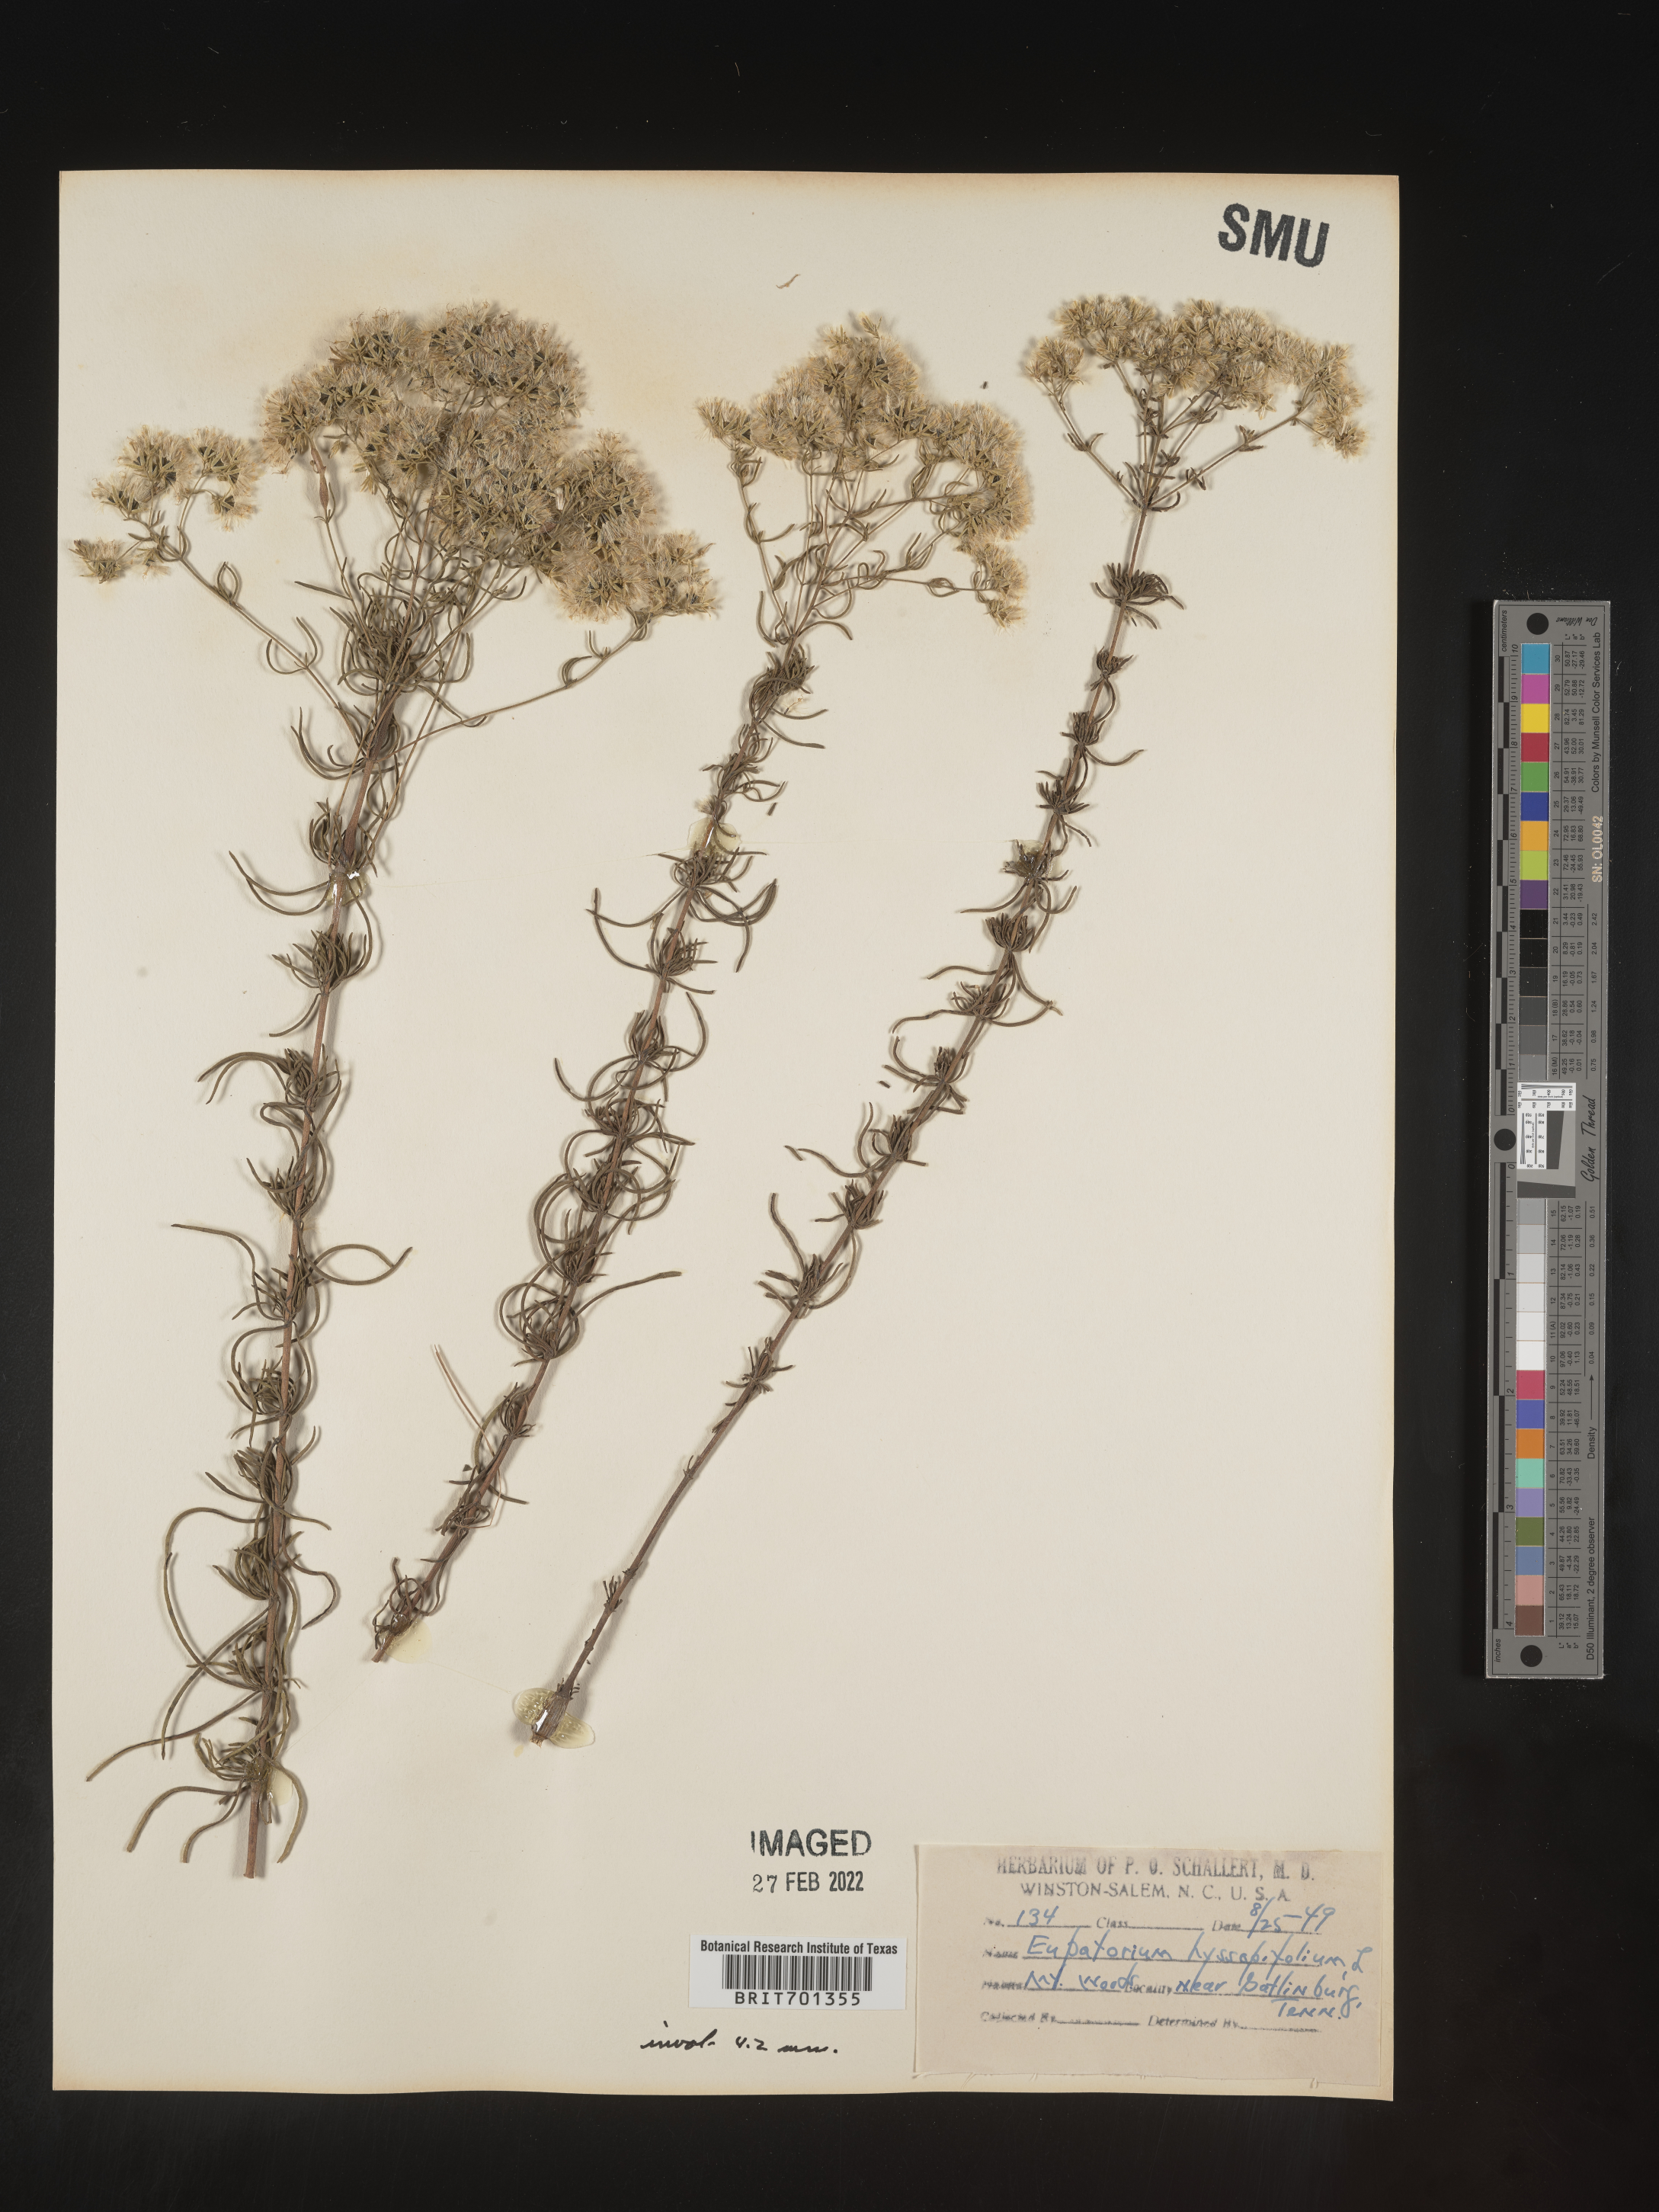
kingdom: Plantae
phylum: Tracheophyta
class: Magnoliopsida
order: Asterales
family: Asteraceae
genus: Eupatorium
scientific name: Eupatorium hyssopifolium
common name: Hyssop-leaf thoroughwort
